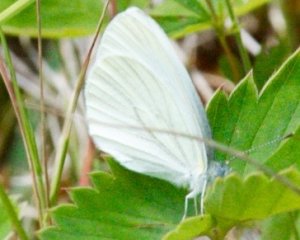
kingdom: Animalia
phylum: Arthropoda
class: Insecta
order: Lepidoptera
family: Pieridae
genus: Pieris
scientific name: Pieris oleracea
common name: Mustard White
